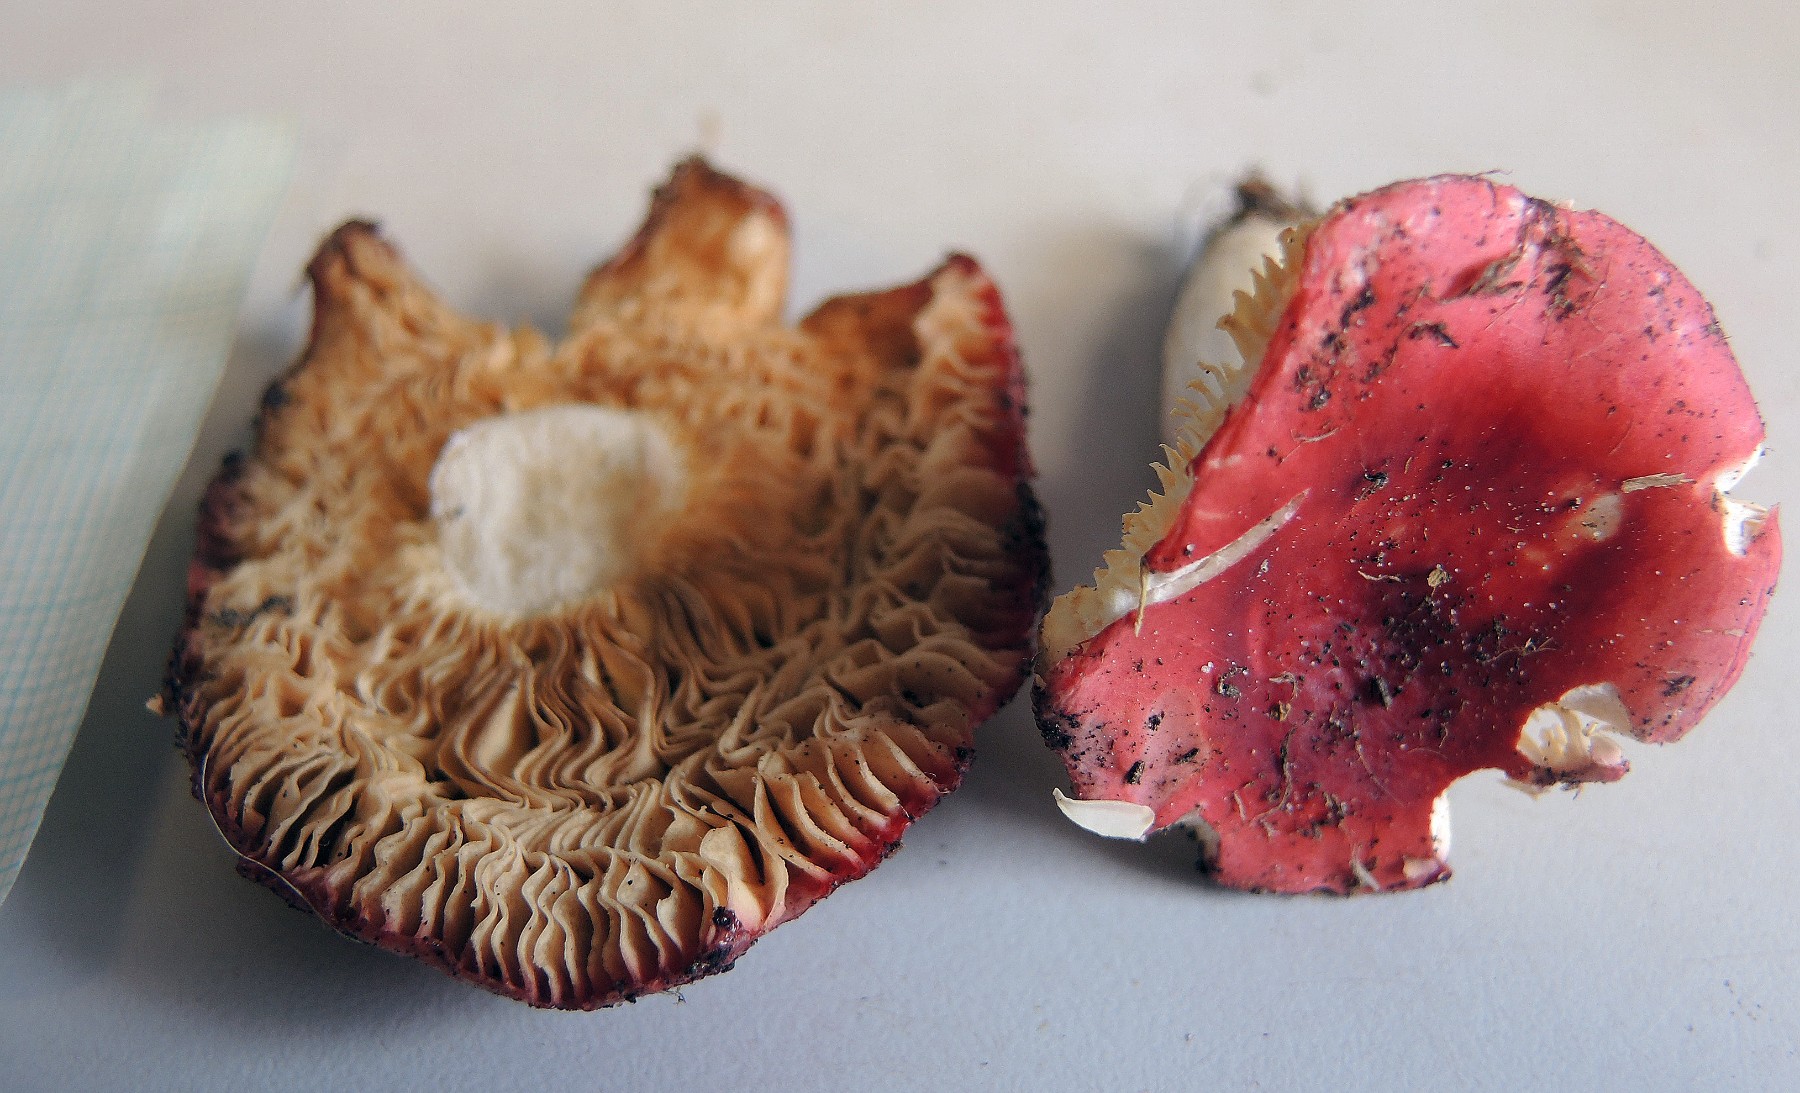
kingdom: Fungi
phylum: Basidiomycota
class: Agaricomycetes
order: Russulales
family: Russulaceae
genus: Russula
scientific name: Russula rutila
